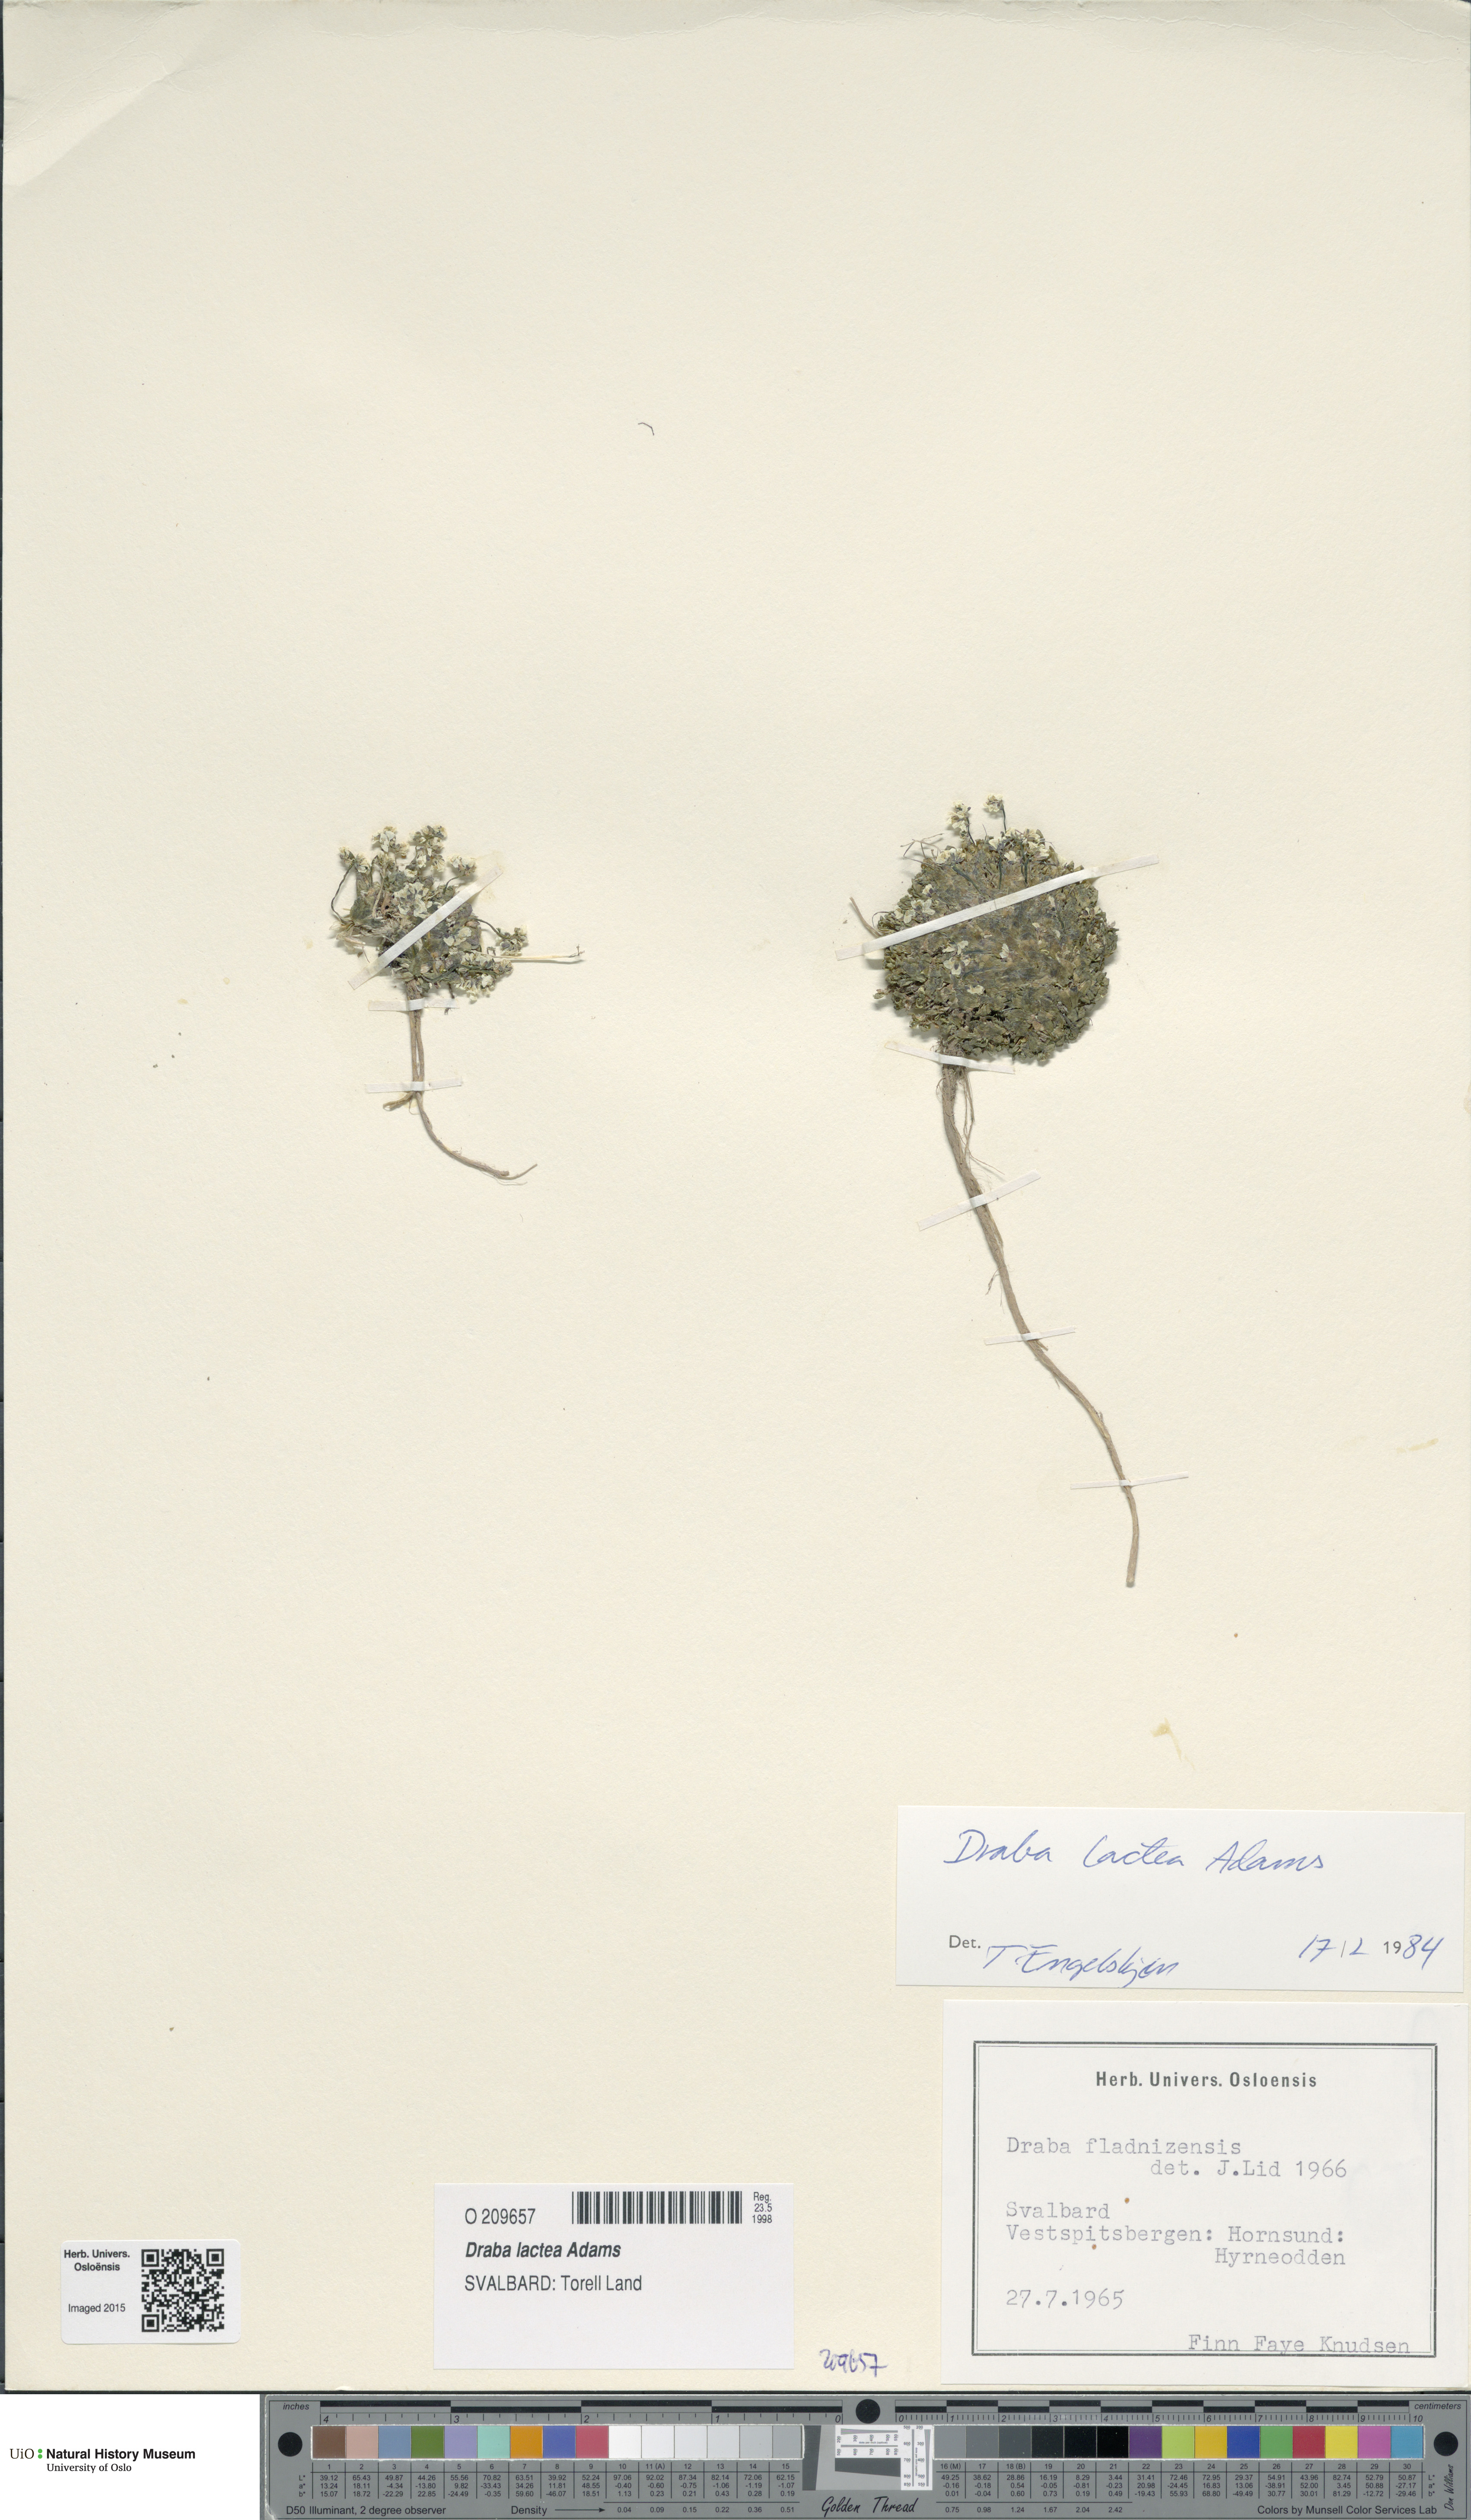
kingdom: Plantae
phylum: Tracheophyta
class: Magnoliopsida
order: Brassicales
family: Brassicaceae
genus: Draba
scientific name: Draba lactea
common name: Milky draba
